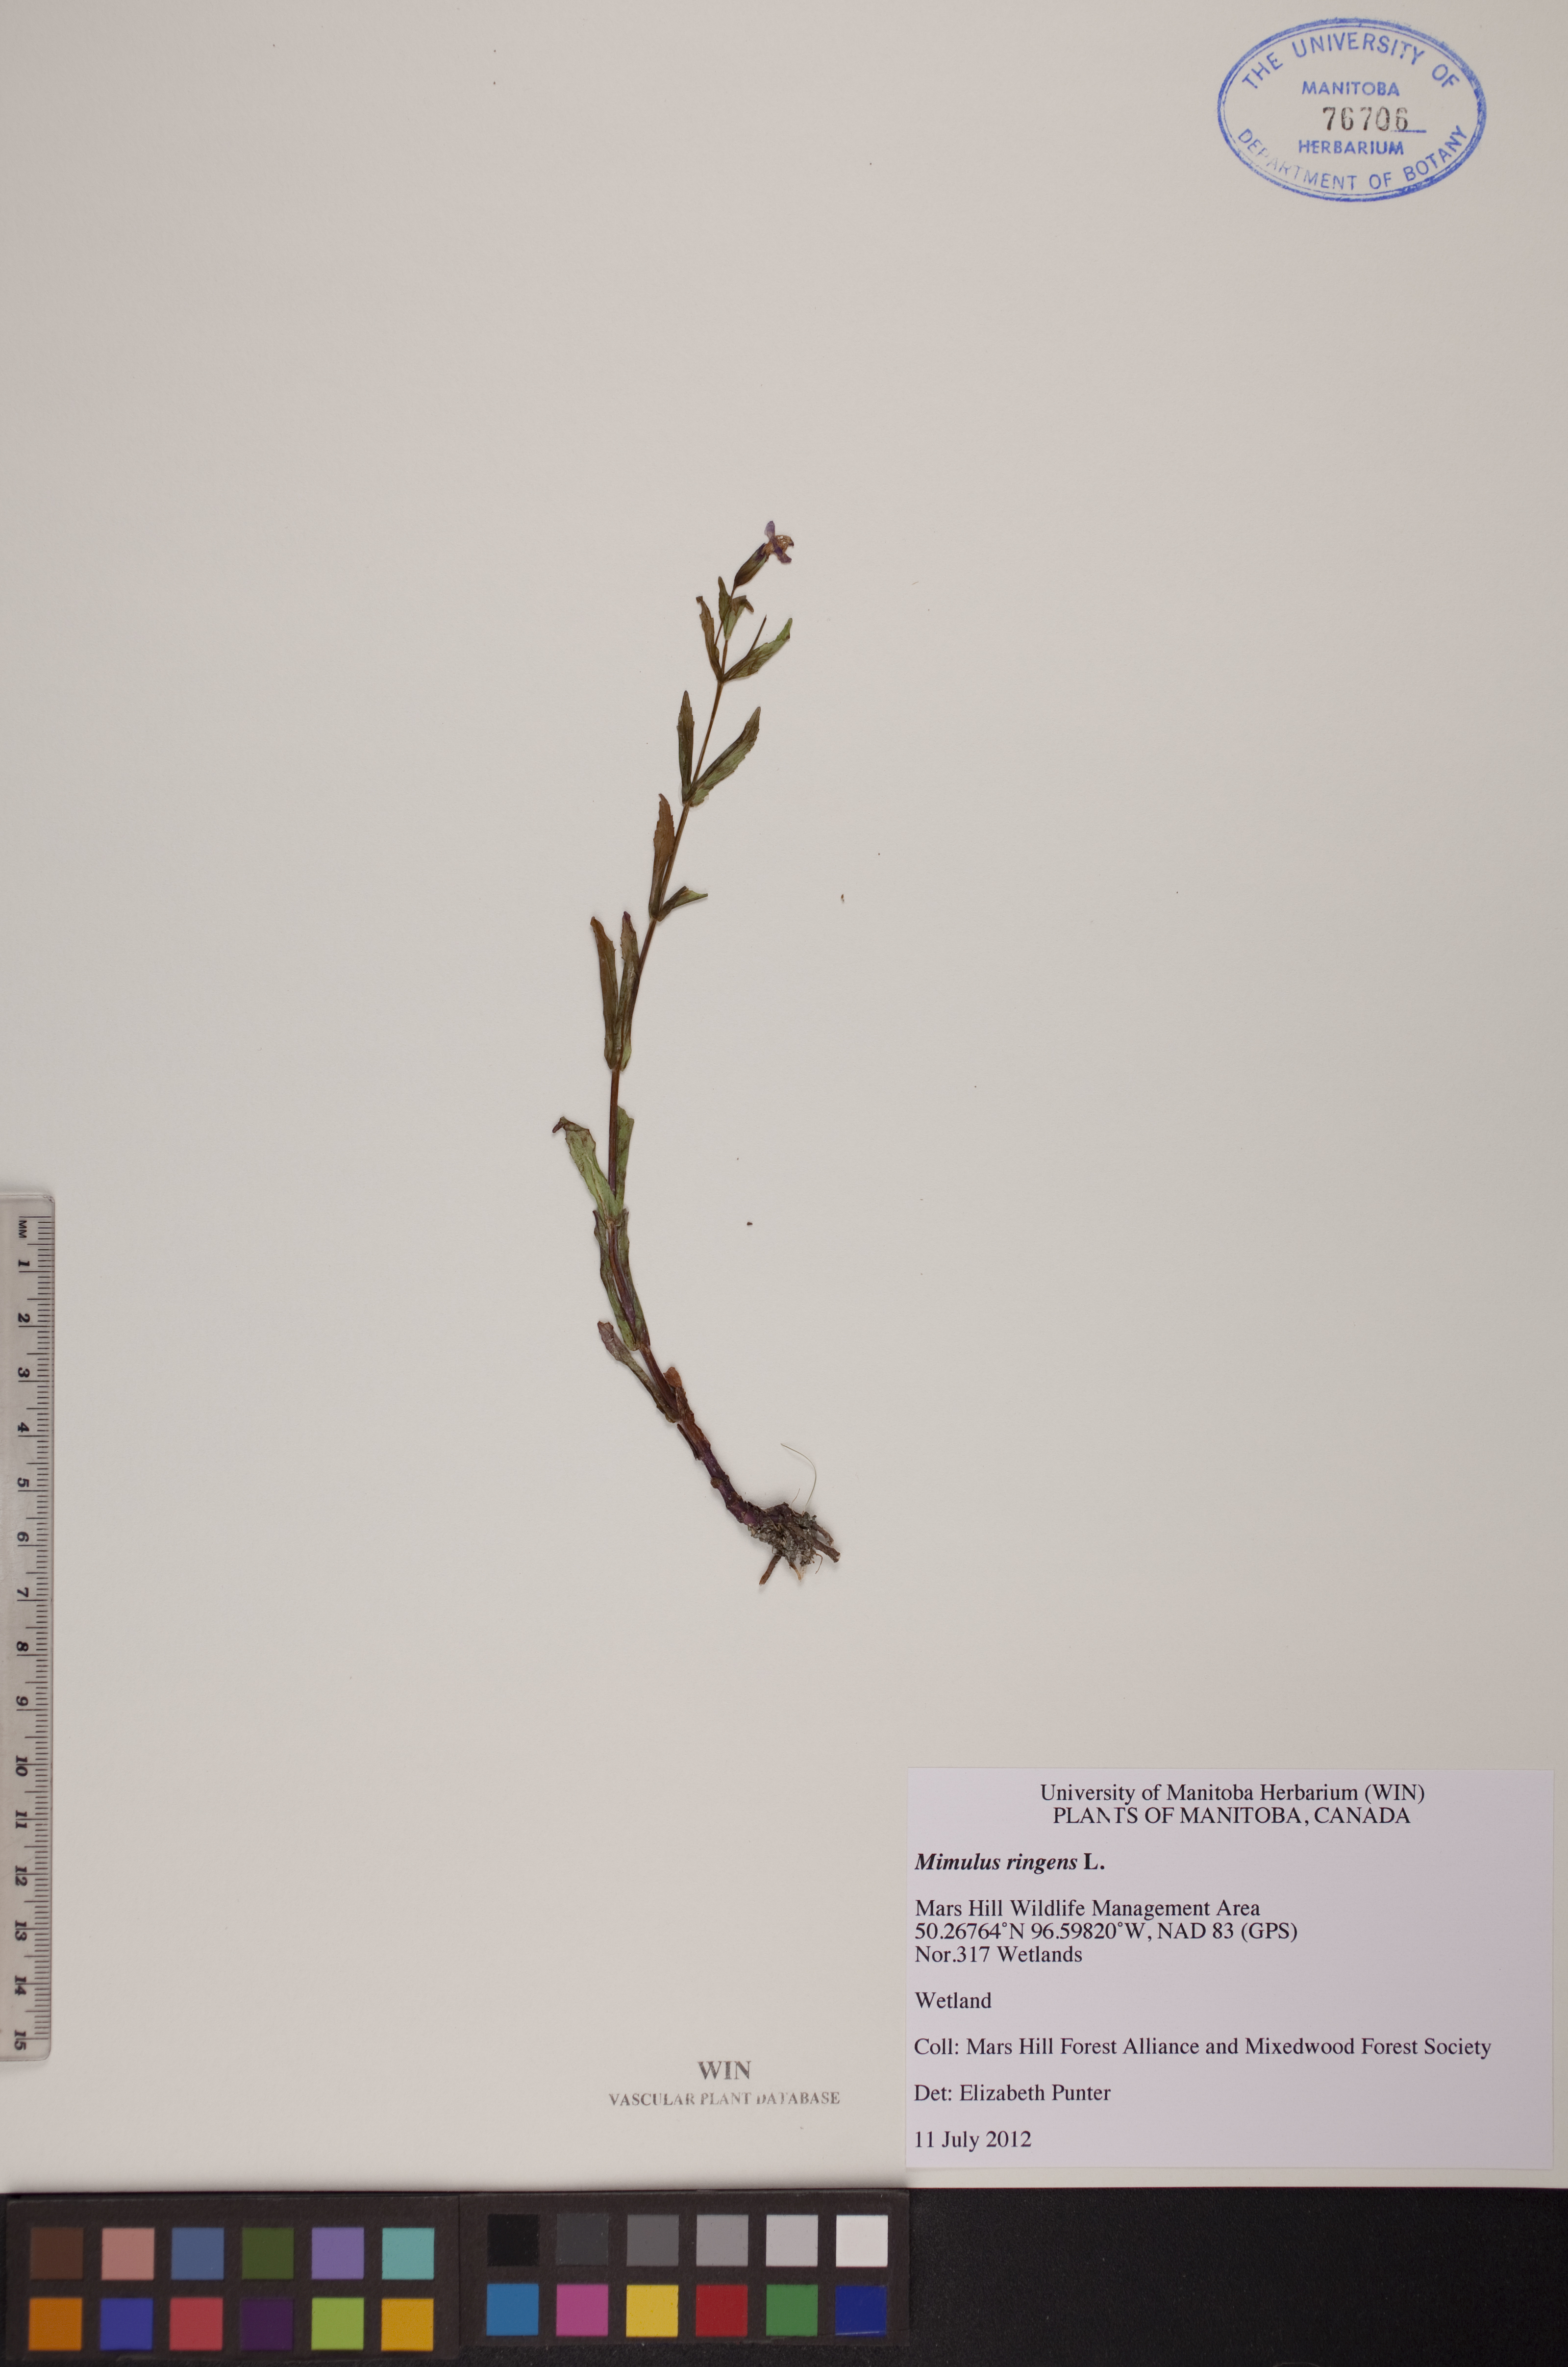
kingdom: Plantae
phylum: Tracheophyta
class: Magnoliopsida
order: Lamiales
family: Phrymaceae
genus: Mimulus
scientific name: Mimulus ringens
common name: Allegheny monkeyflower
